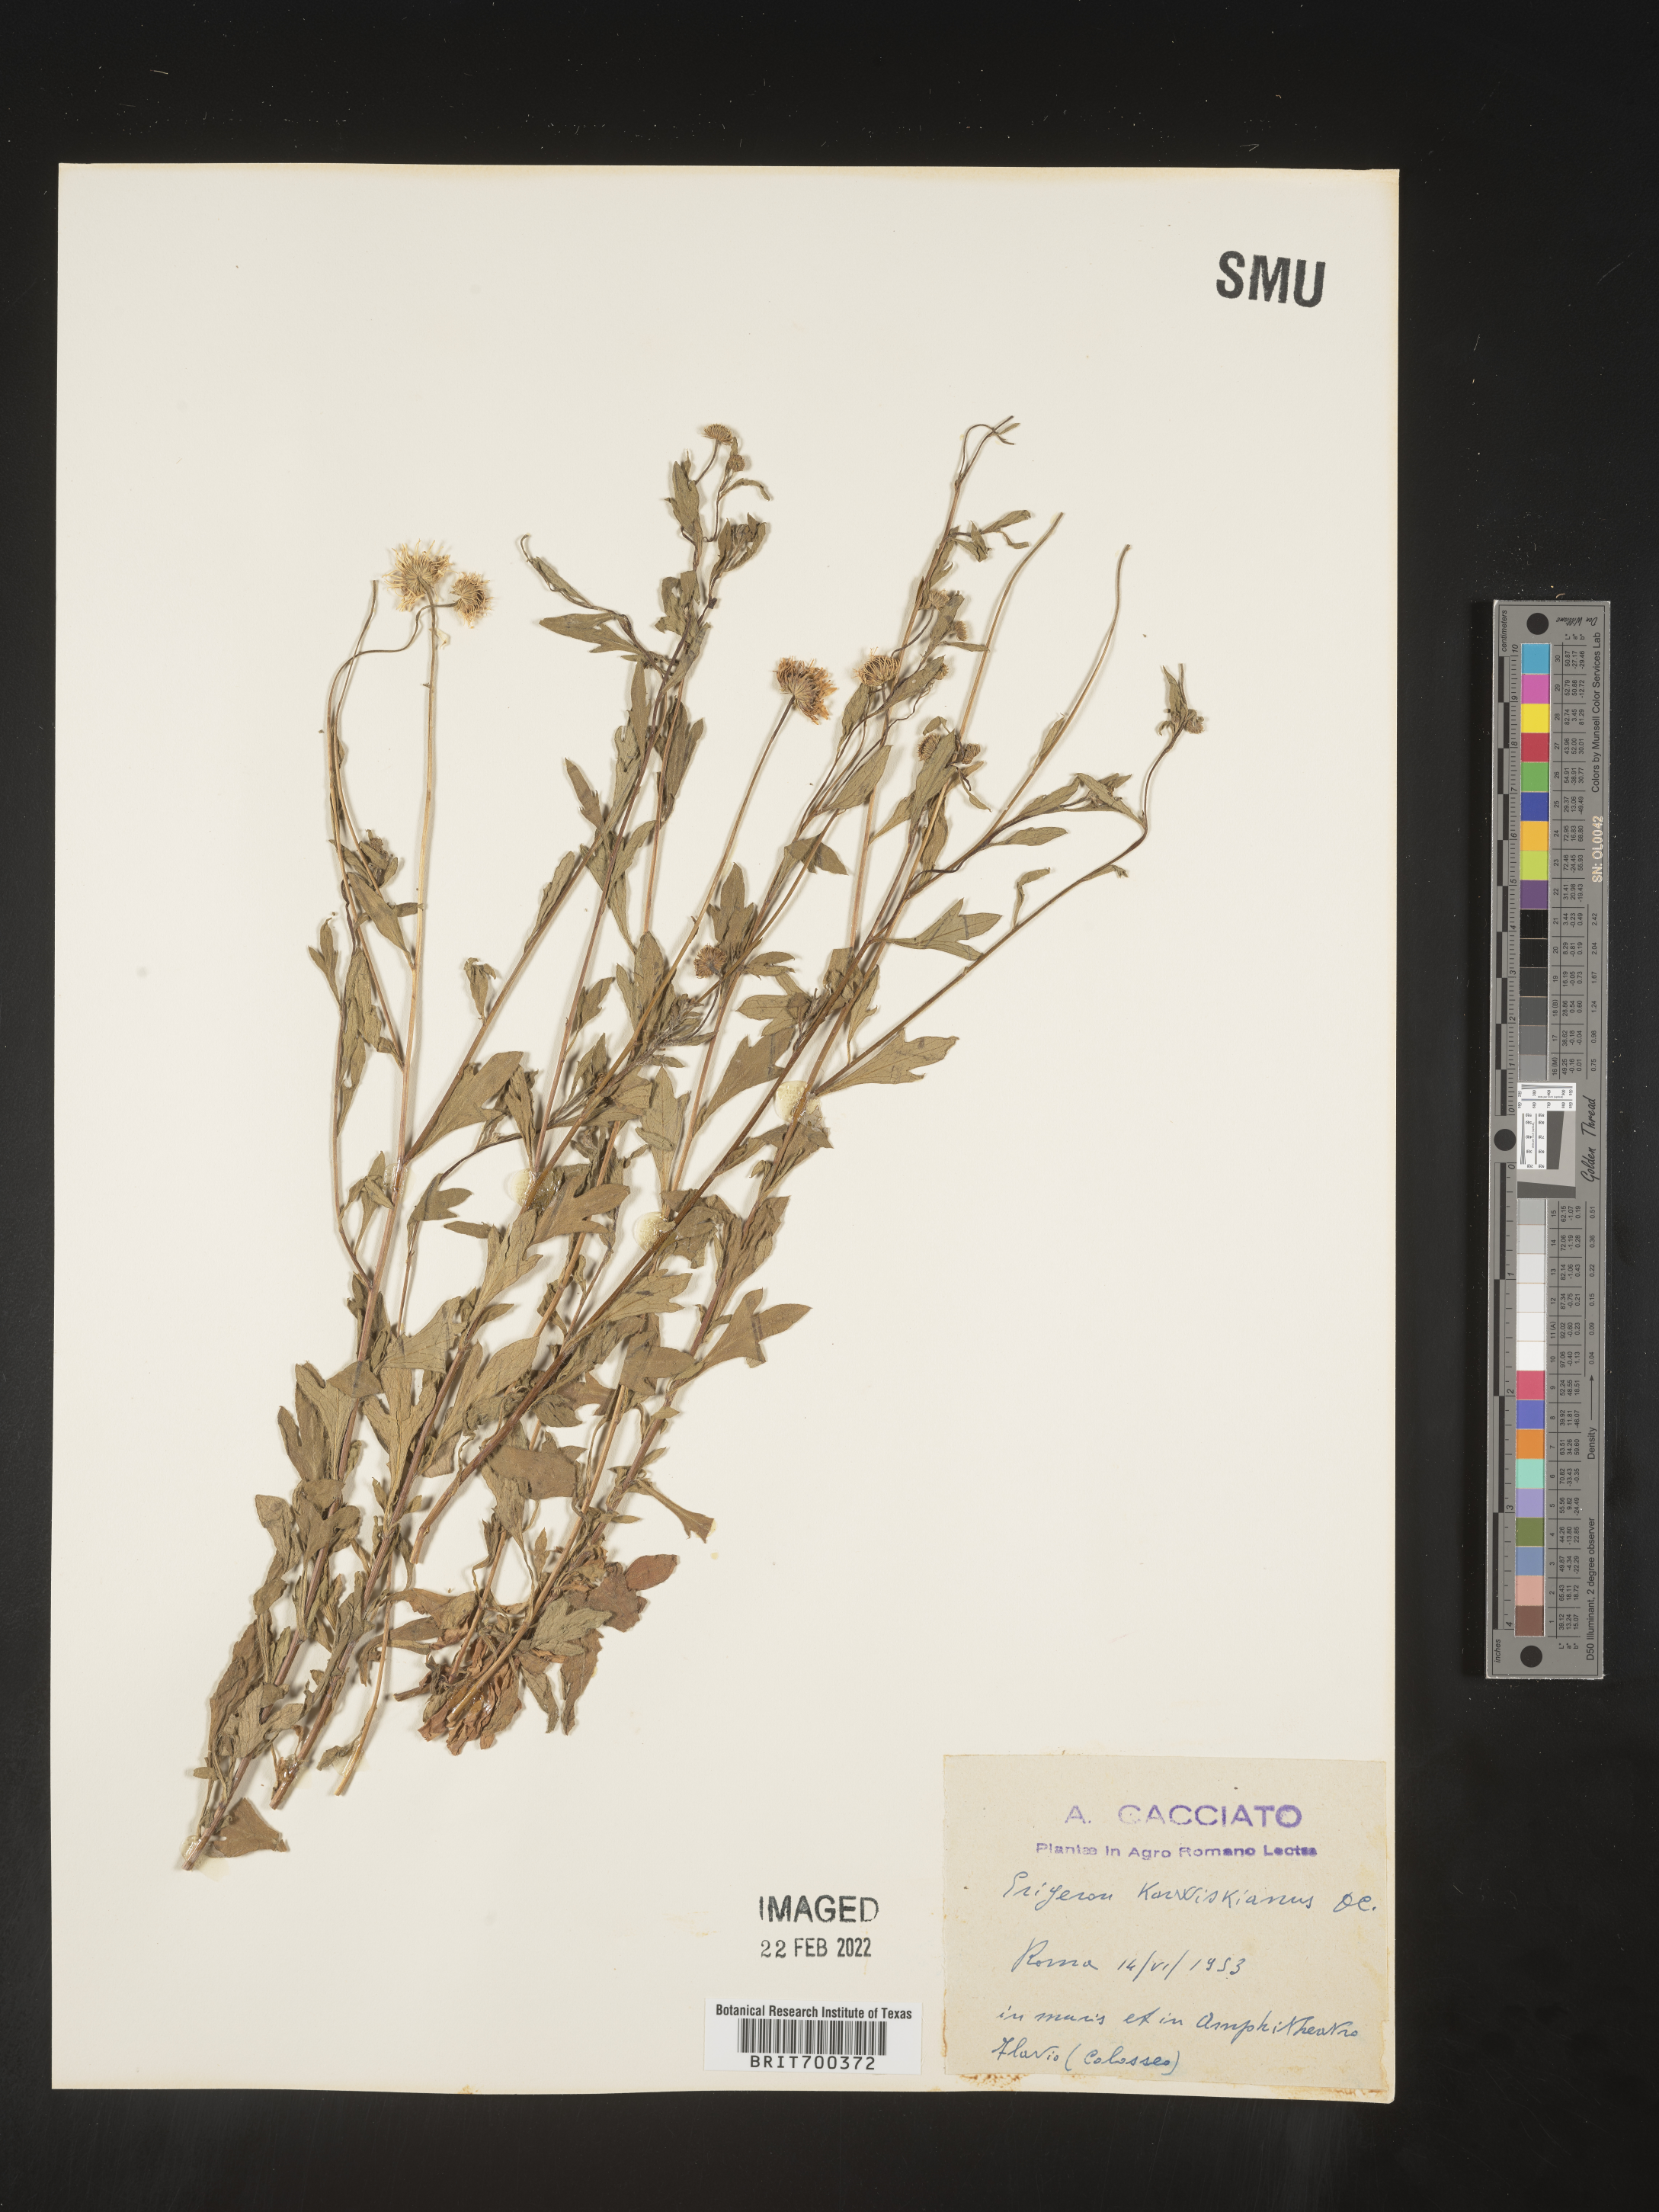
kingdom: Plantae
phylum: Tracheophyta
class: Magnoliopsida
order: Asterales
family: Asteraceae
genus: Erigeron
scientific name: Erigeron
